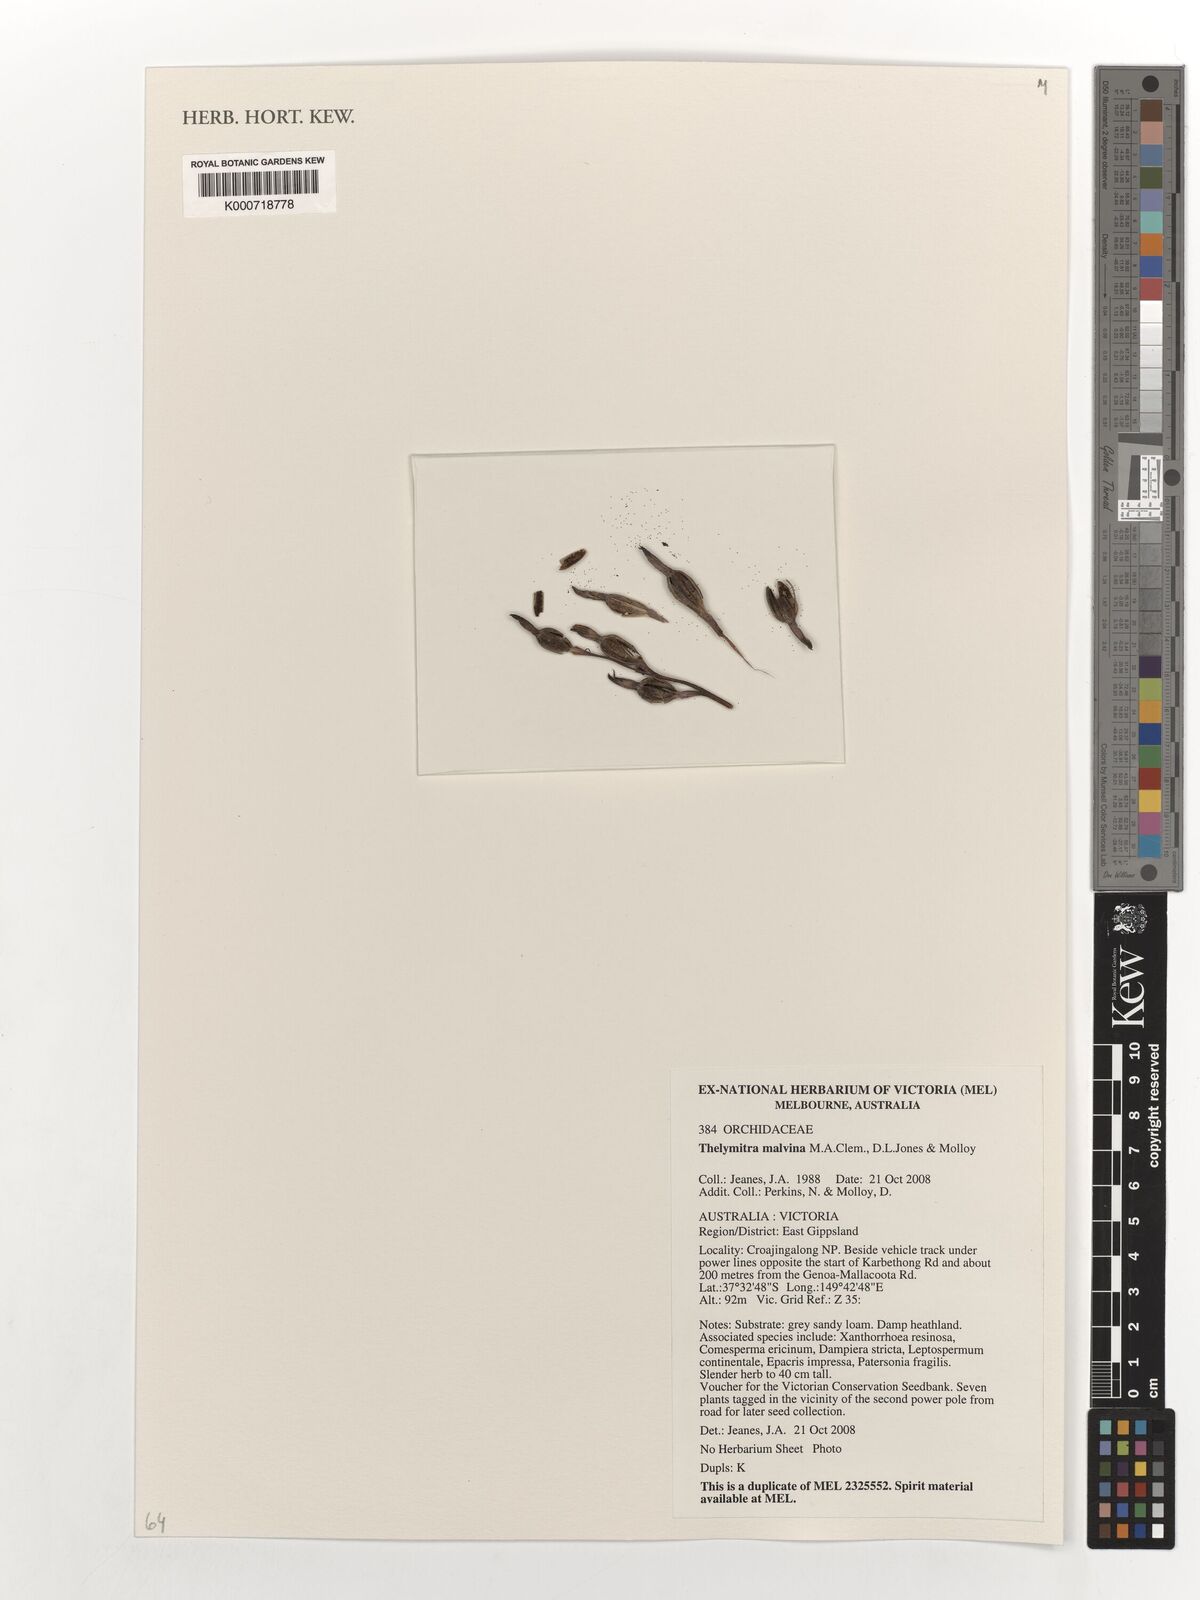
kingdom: Plantae
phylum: Tracheophyta
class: Liliopsida
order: Asparagales
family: Orchidaceae
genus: Thelymitra
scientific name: Thelymitra malvina
